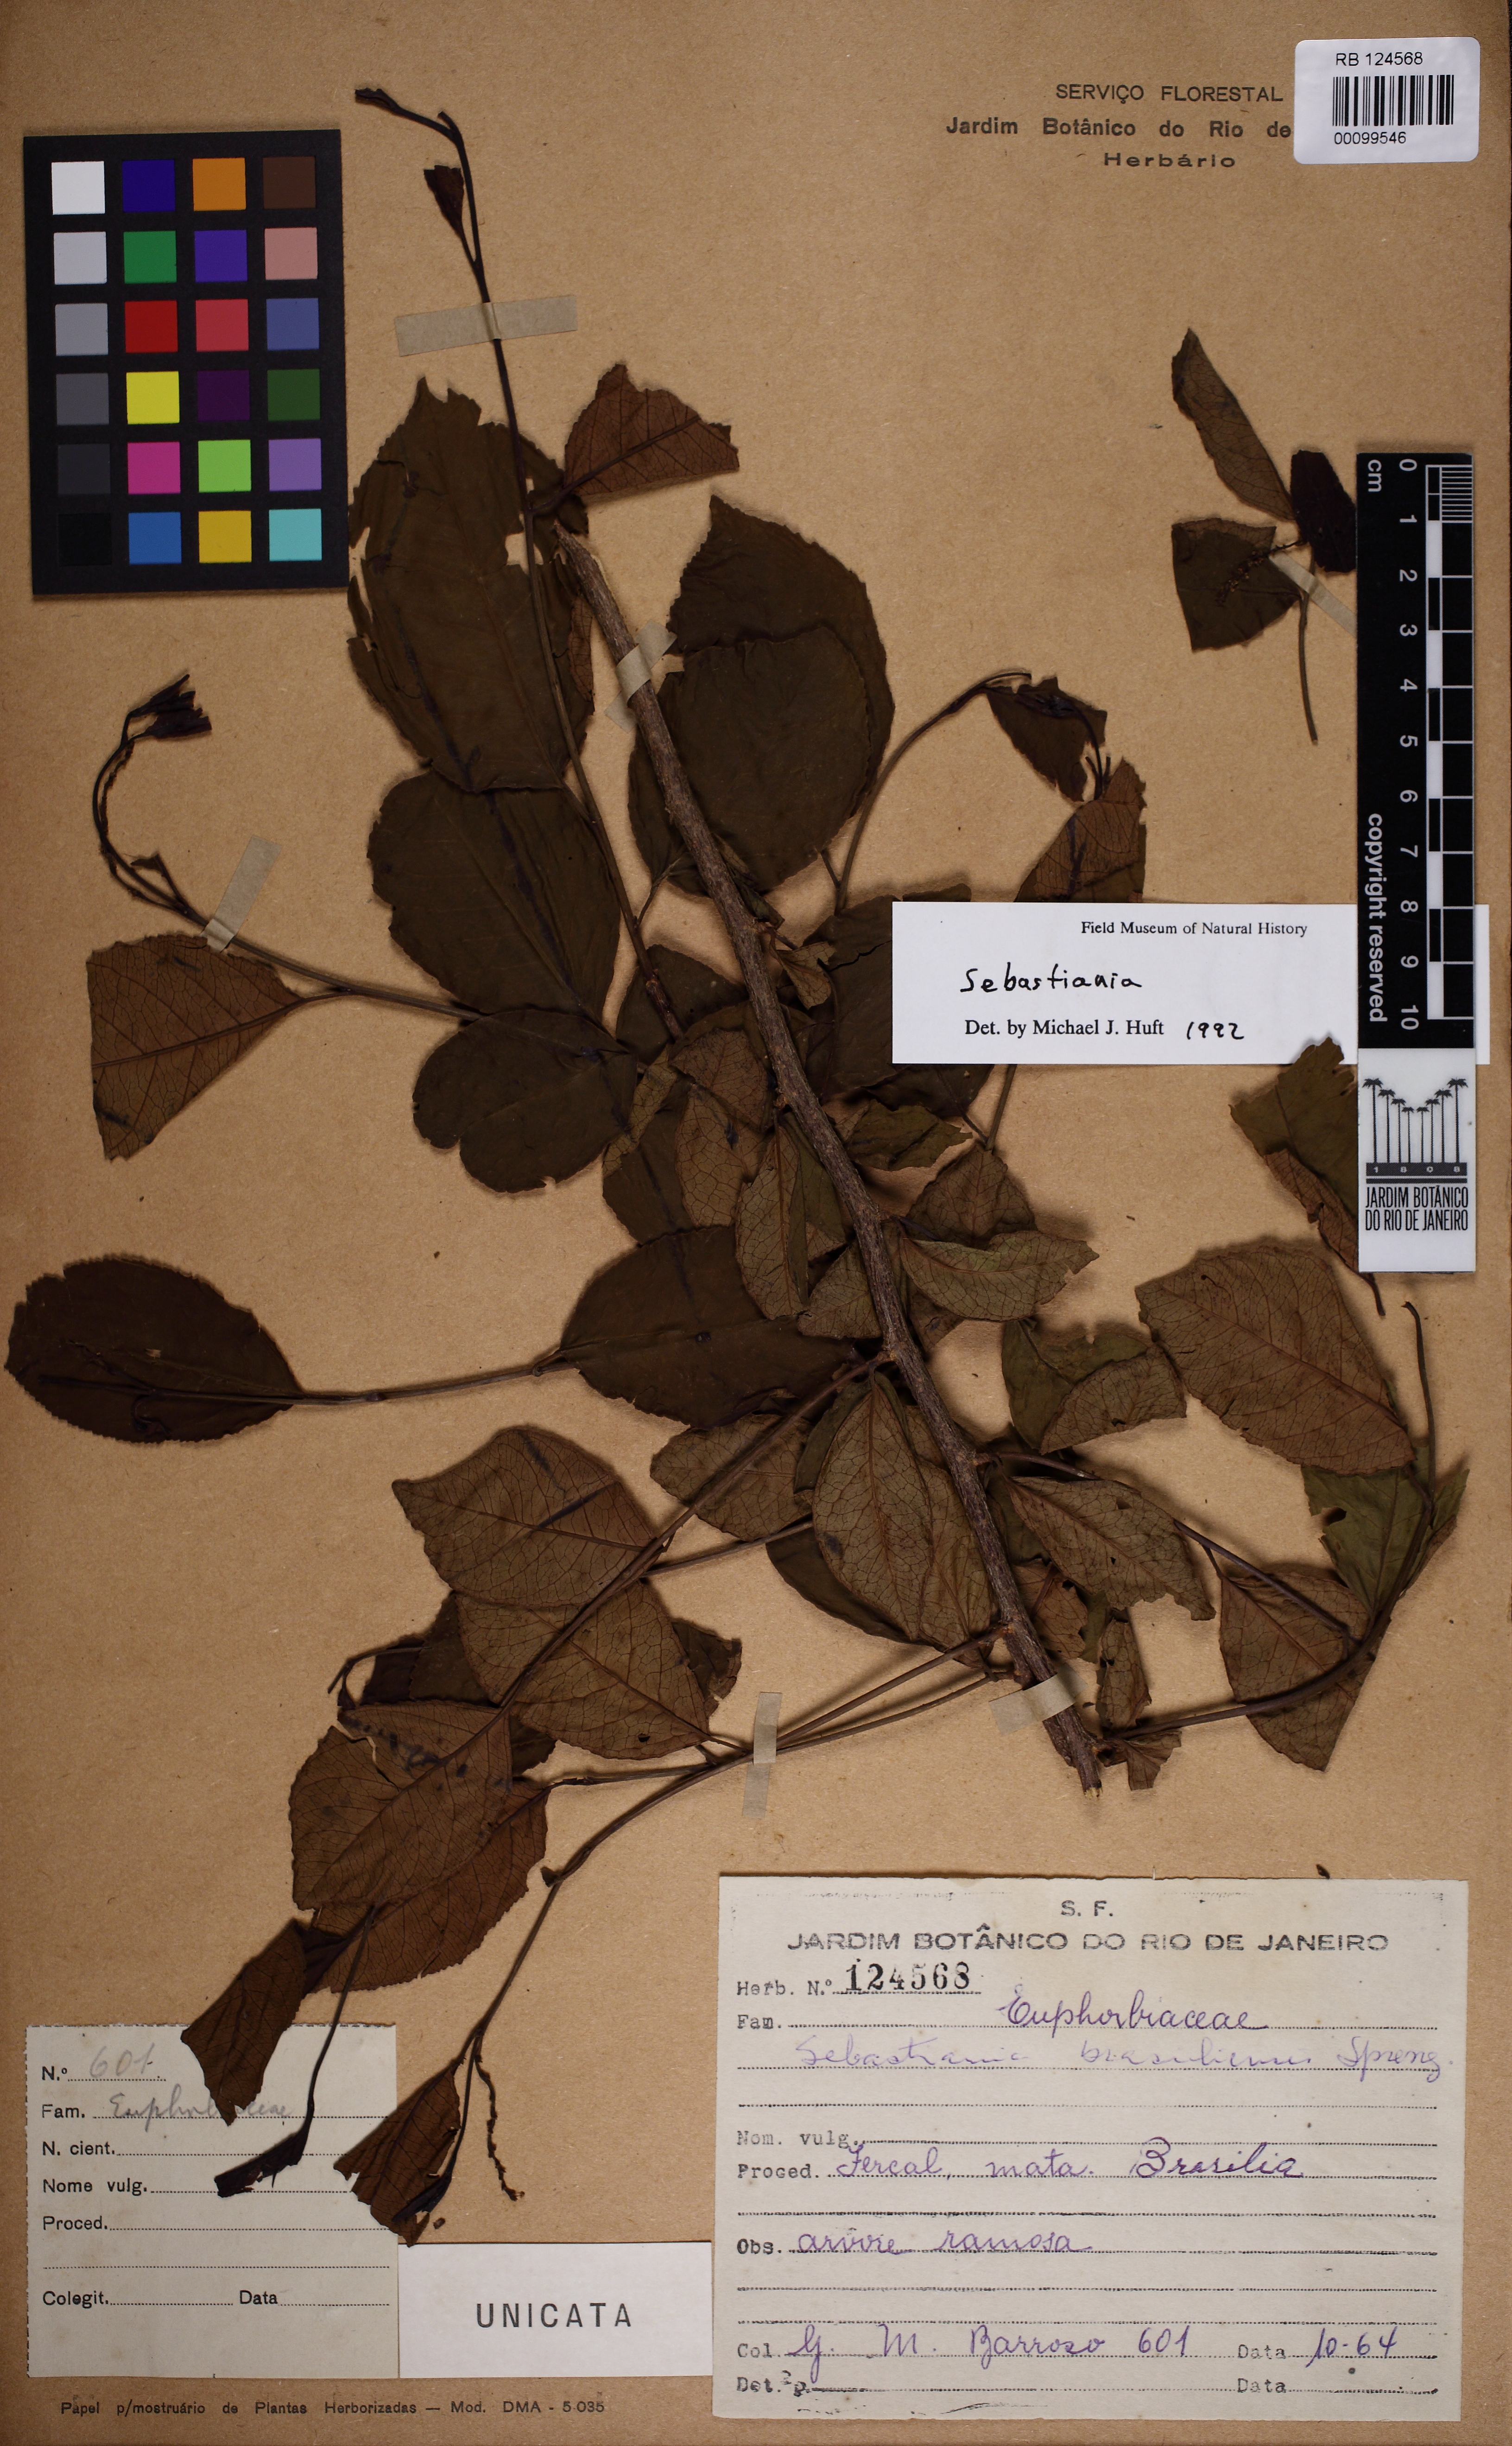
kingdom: Plantae
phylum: Tracheophyta
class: Magnoliopsida
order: Malpighiales
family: Euphorbiaceae
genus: Sebastiania
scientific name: Sebastiania
